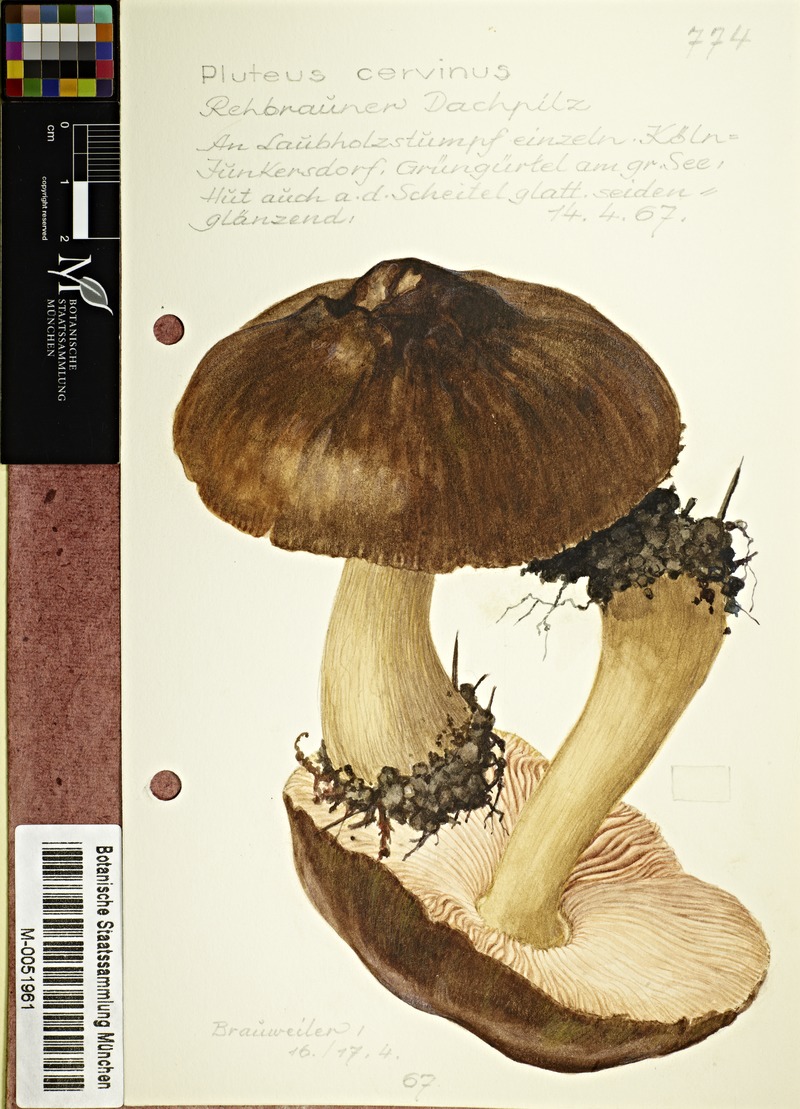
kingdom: Fungi
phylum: Basidiomycota
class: Agaricomycetes
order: Agaricales
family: Pluteaceae
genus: Pluteus
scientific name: Pluteus cervinus
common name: Deer shield
